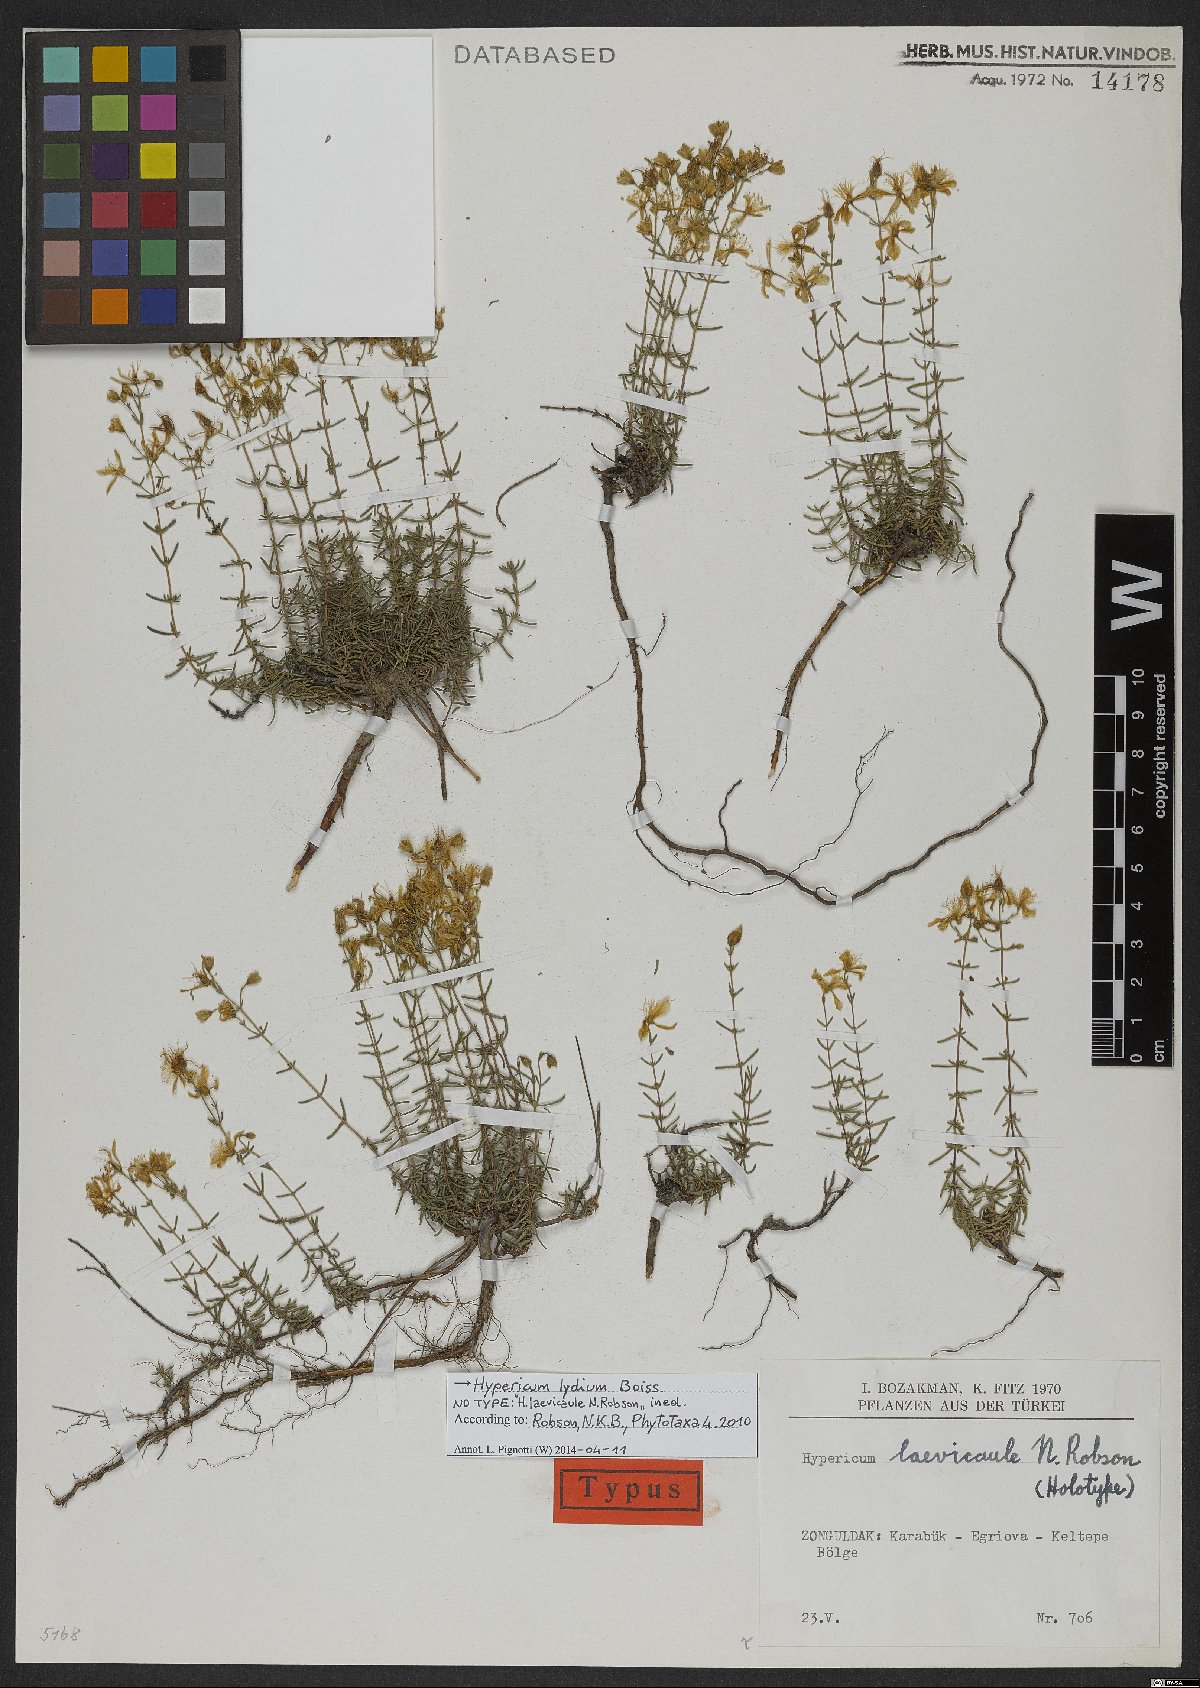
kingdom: Plantae
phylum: Tracheophyta
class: Magnoliopsida
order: Malpighiales
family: Hypericaceae
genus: Hypericum
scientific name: Hypericum lydium
